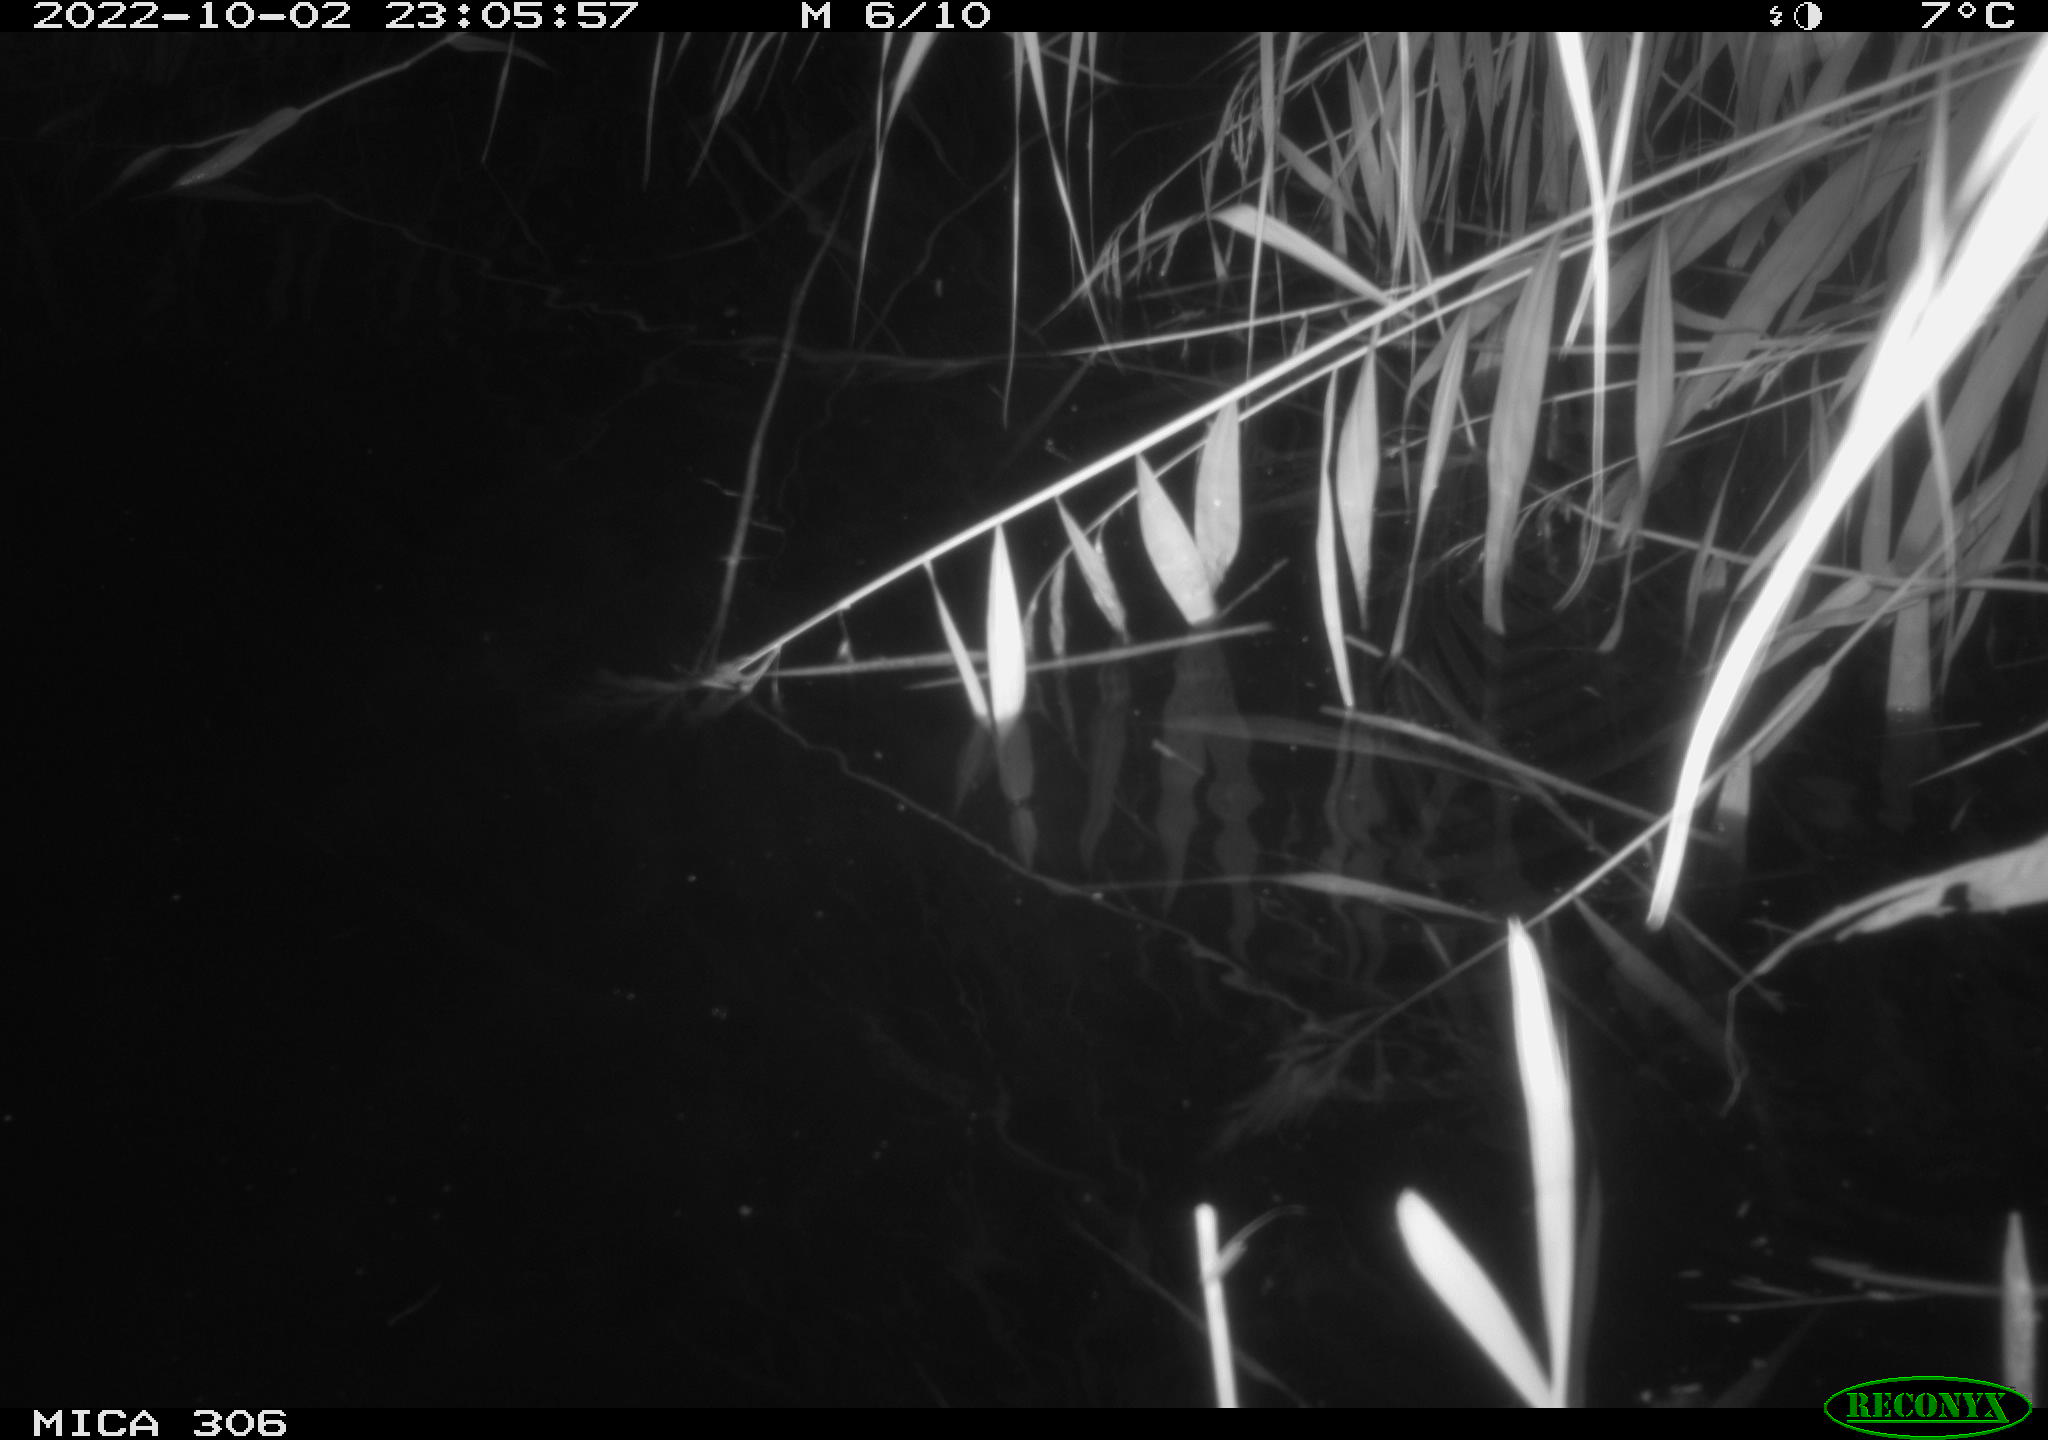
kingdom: Animalia
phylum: Chordata
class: Mammalia
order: Rodentia
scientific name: Rodentia
